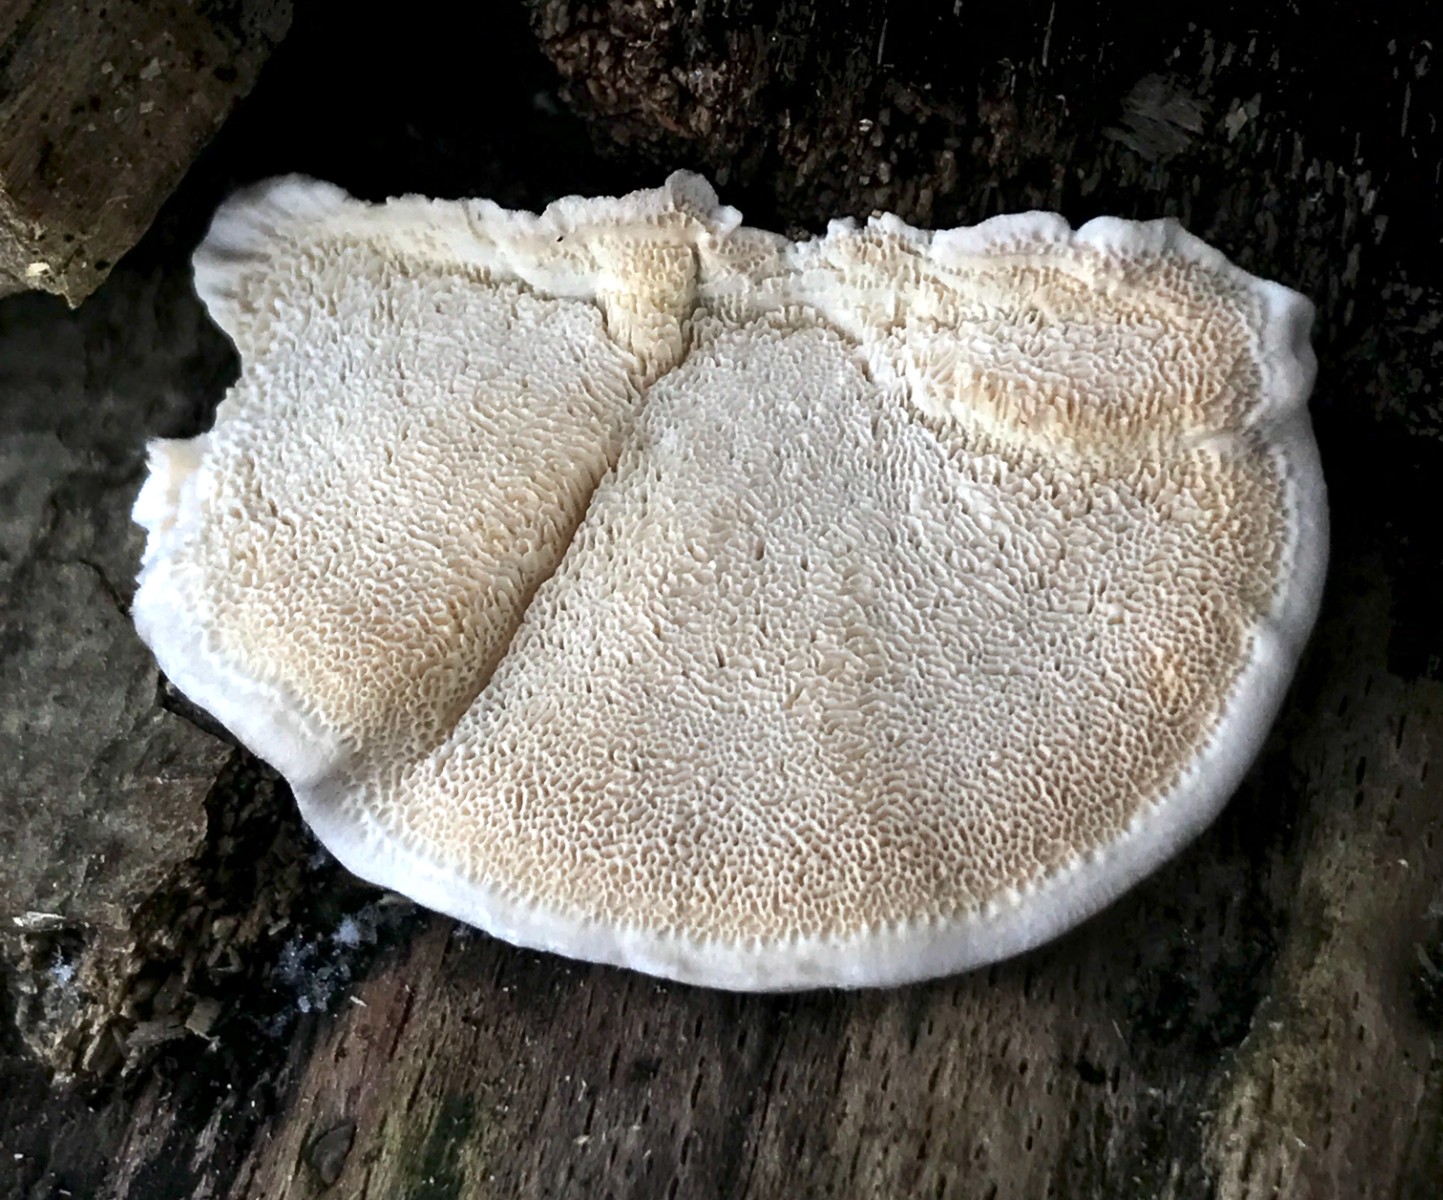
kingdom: Fungi
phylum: Basidiomycota
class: Agaricomycetes
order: Polyporales
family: Polyporaceae
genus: Trametes
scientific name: Trametes versicolor
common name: broget læderporesvamp
